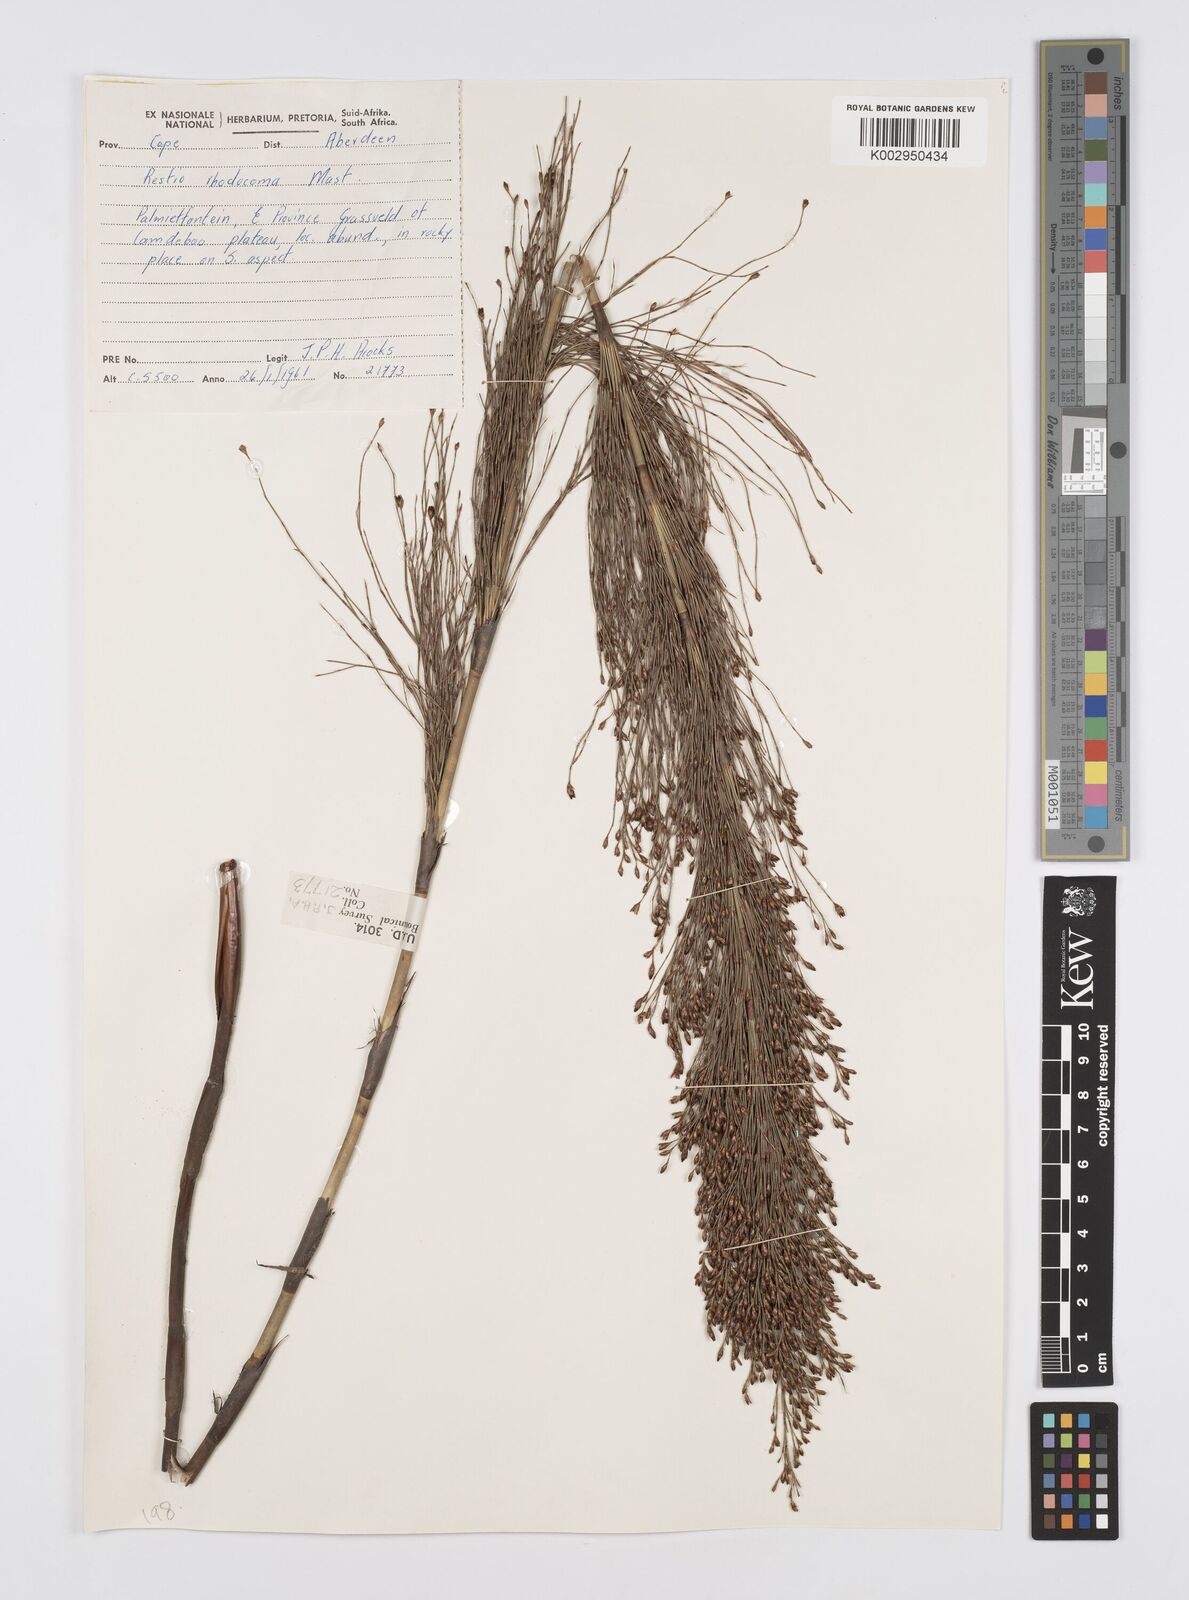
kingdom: Plantae
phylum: Tracheophyta
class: Liliopsida
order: Poales
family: Restionaceae
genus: Rhodocoma
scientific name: Rhodocoma capensis
